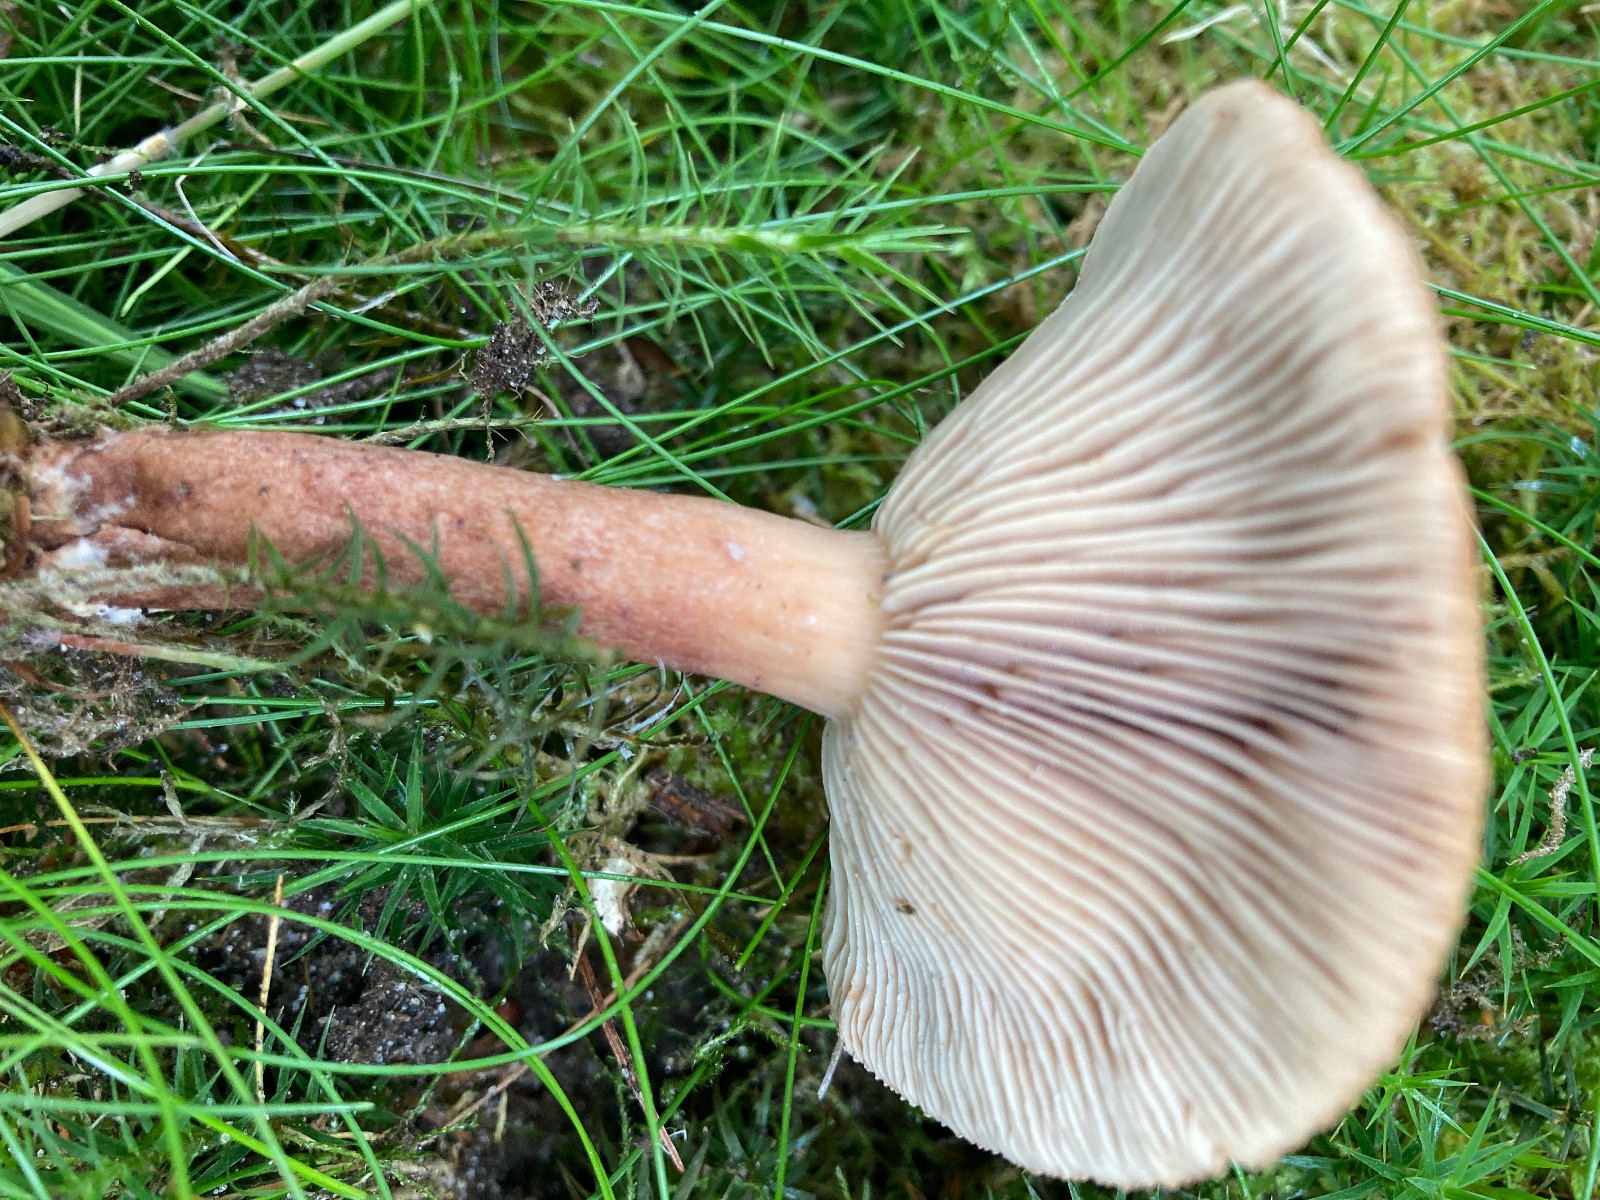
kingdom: Fungi
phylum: Basidiomycota
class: Agaricomycetes
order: Russulales
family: Russulaceae
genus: Lactarius
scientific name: Lactarius quietus
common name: ege-mælkehat
